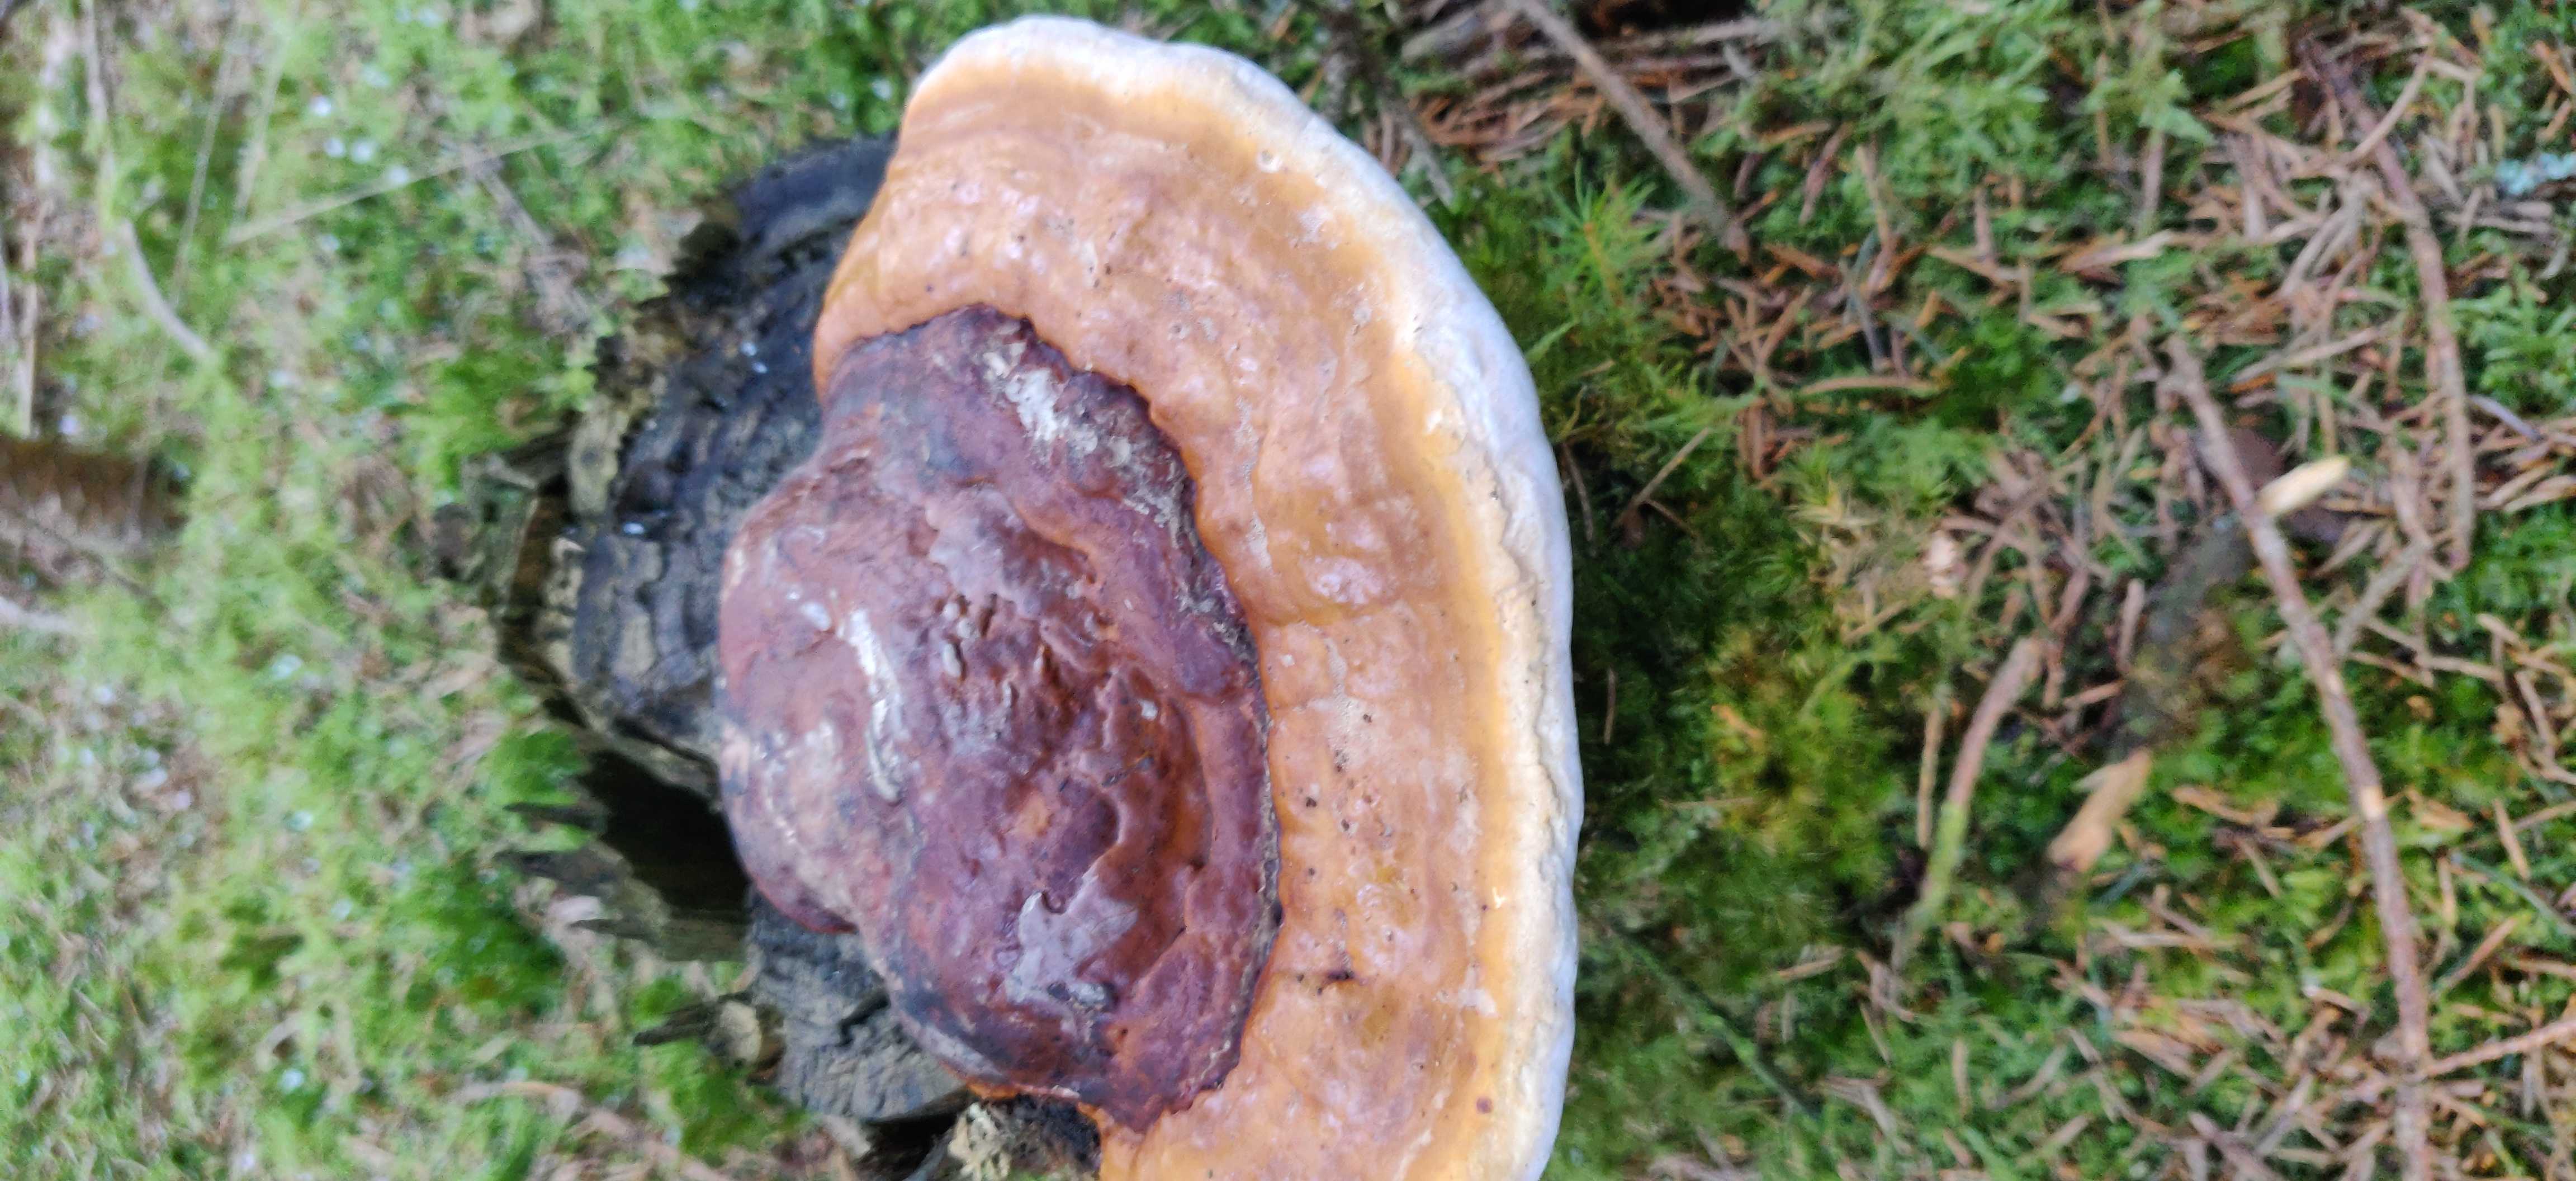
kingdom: Fungi
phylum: Basidiomycota
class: Agaricomycetes
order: Polyporales
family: Fomitopsidaceae
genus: Fomitopsis
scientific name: Fomitopsis pinicola
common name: randbæltet hovporesvamp
